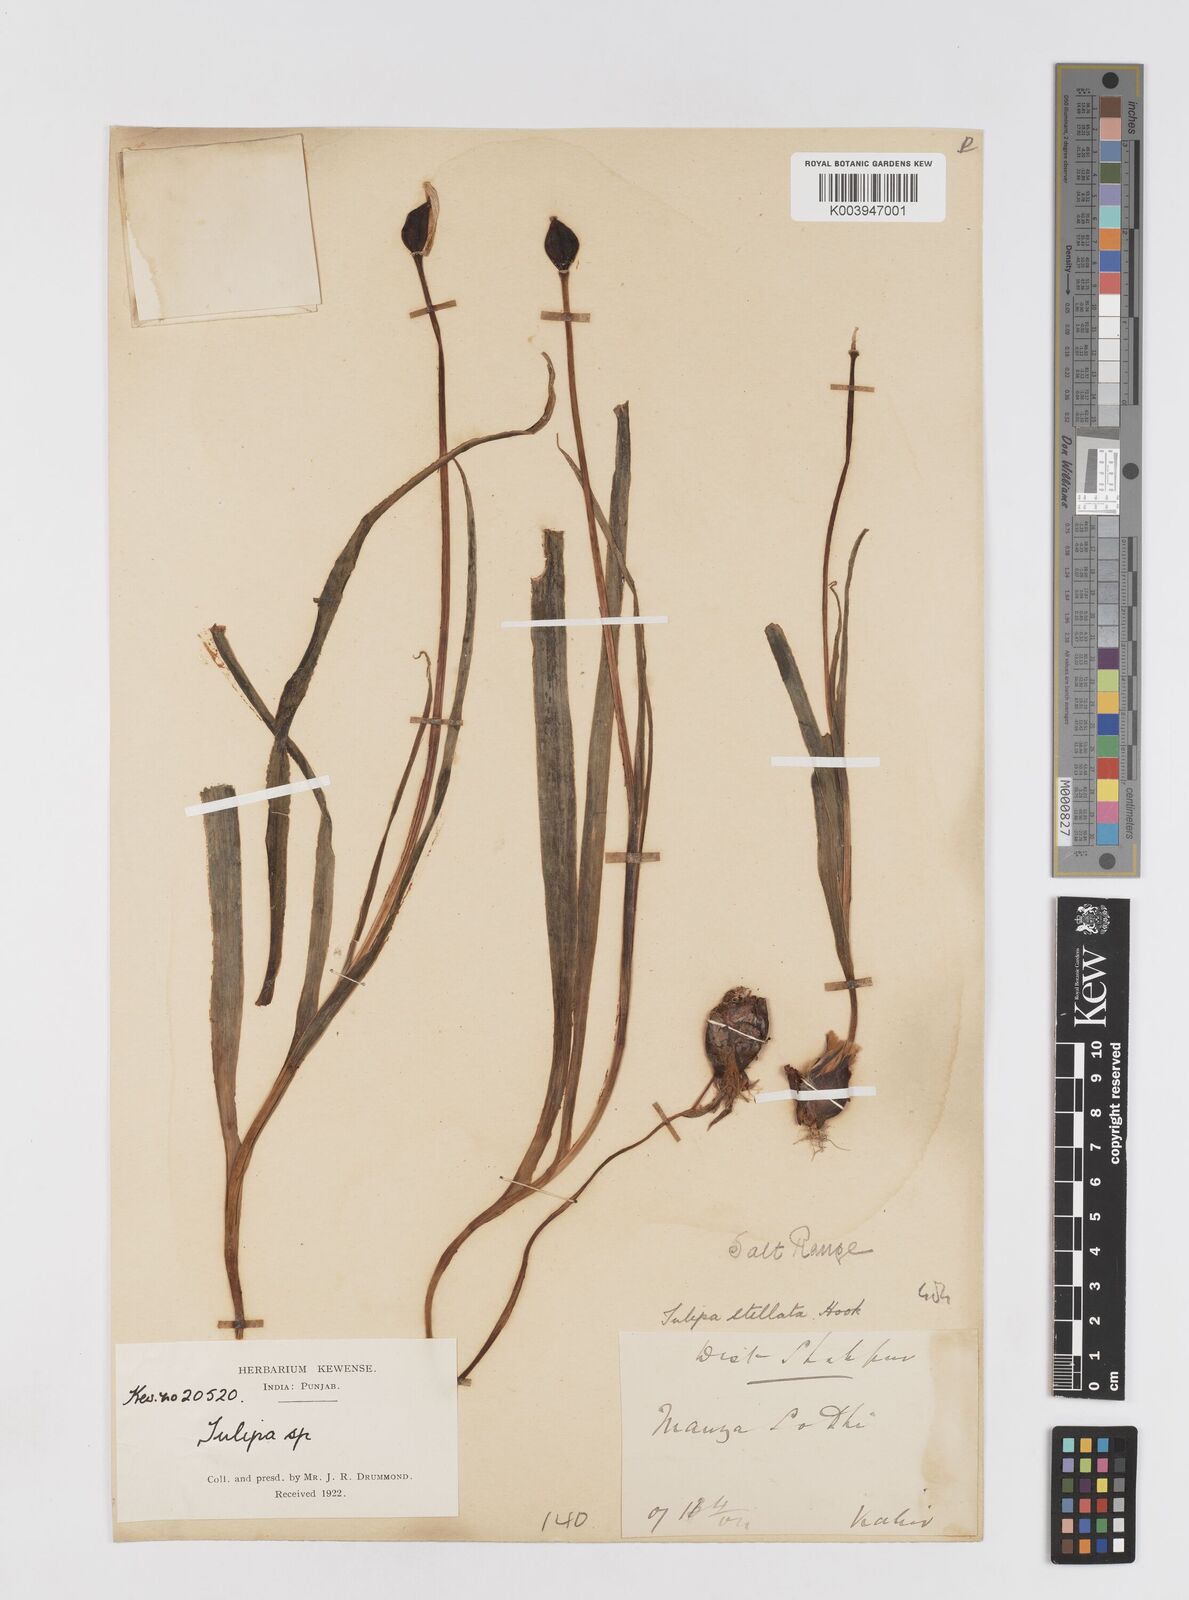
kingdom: Plantae
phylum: Tracheophyta
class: Liliopsida
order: Liliales
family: Liliaceae
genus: Tulipa
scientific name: Tulipa clusiana
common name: Lady tulip
